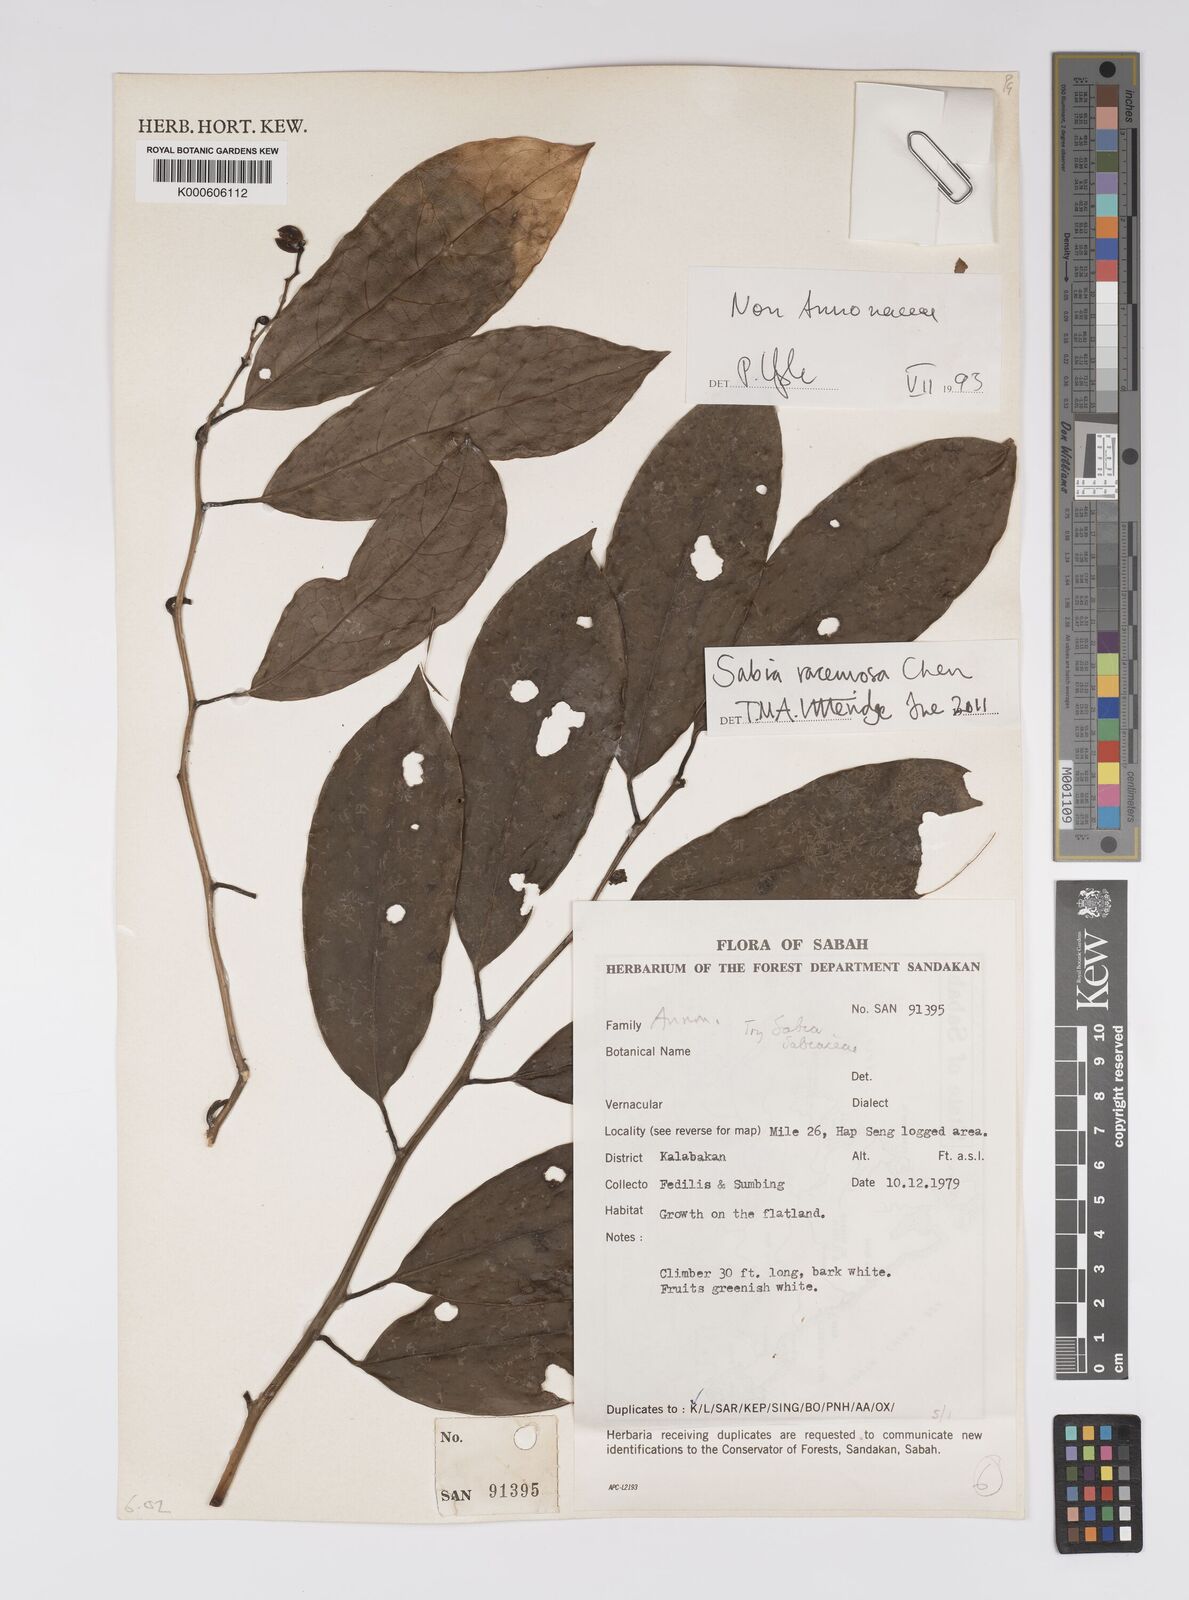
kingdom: Plantae
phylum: Tracheophyta
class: Magnoliopsida
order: Proteales
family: Sabiaceae
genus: Sabia
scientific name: Sabia racemosa
